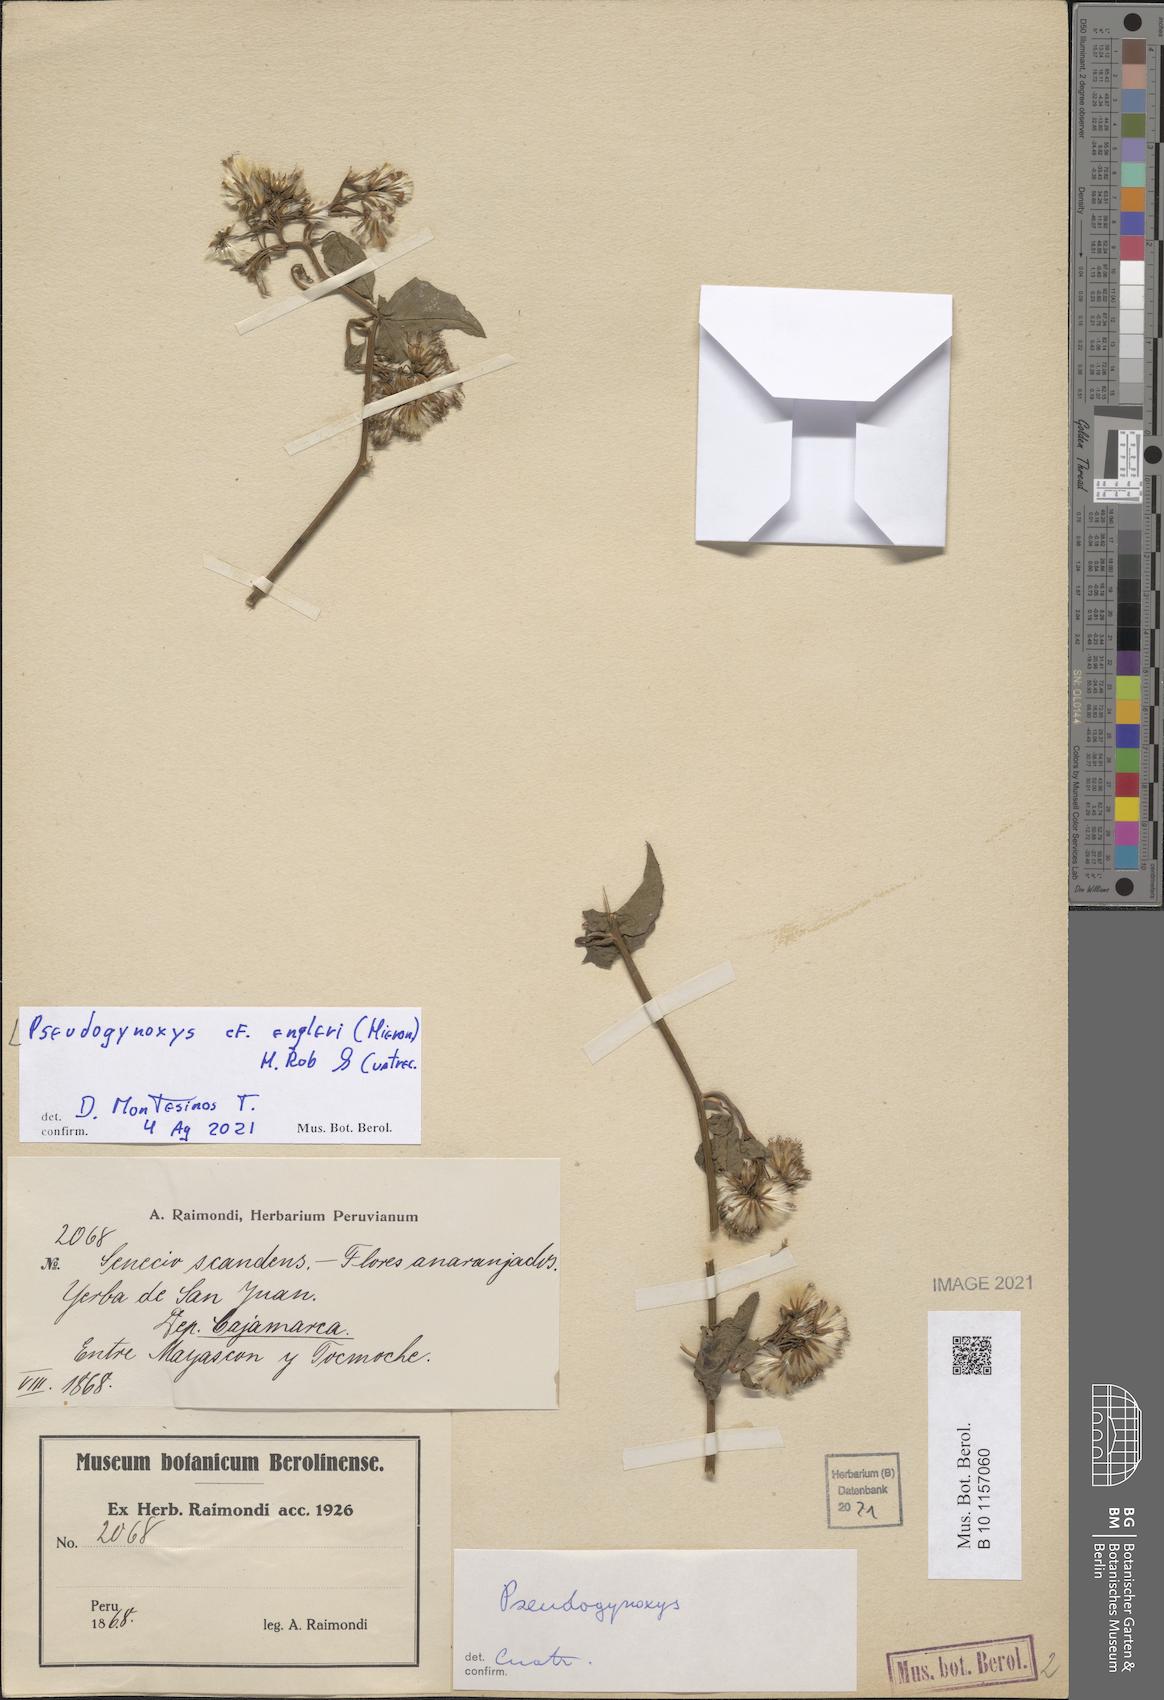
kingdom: Plantae
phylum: Tracheophyta
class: Magnoliopsida
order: Asterales
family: Asteraceae
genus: Pseudogynoxys
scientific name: Pseudogynoxys engleri
